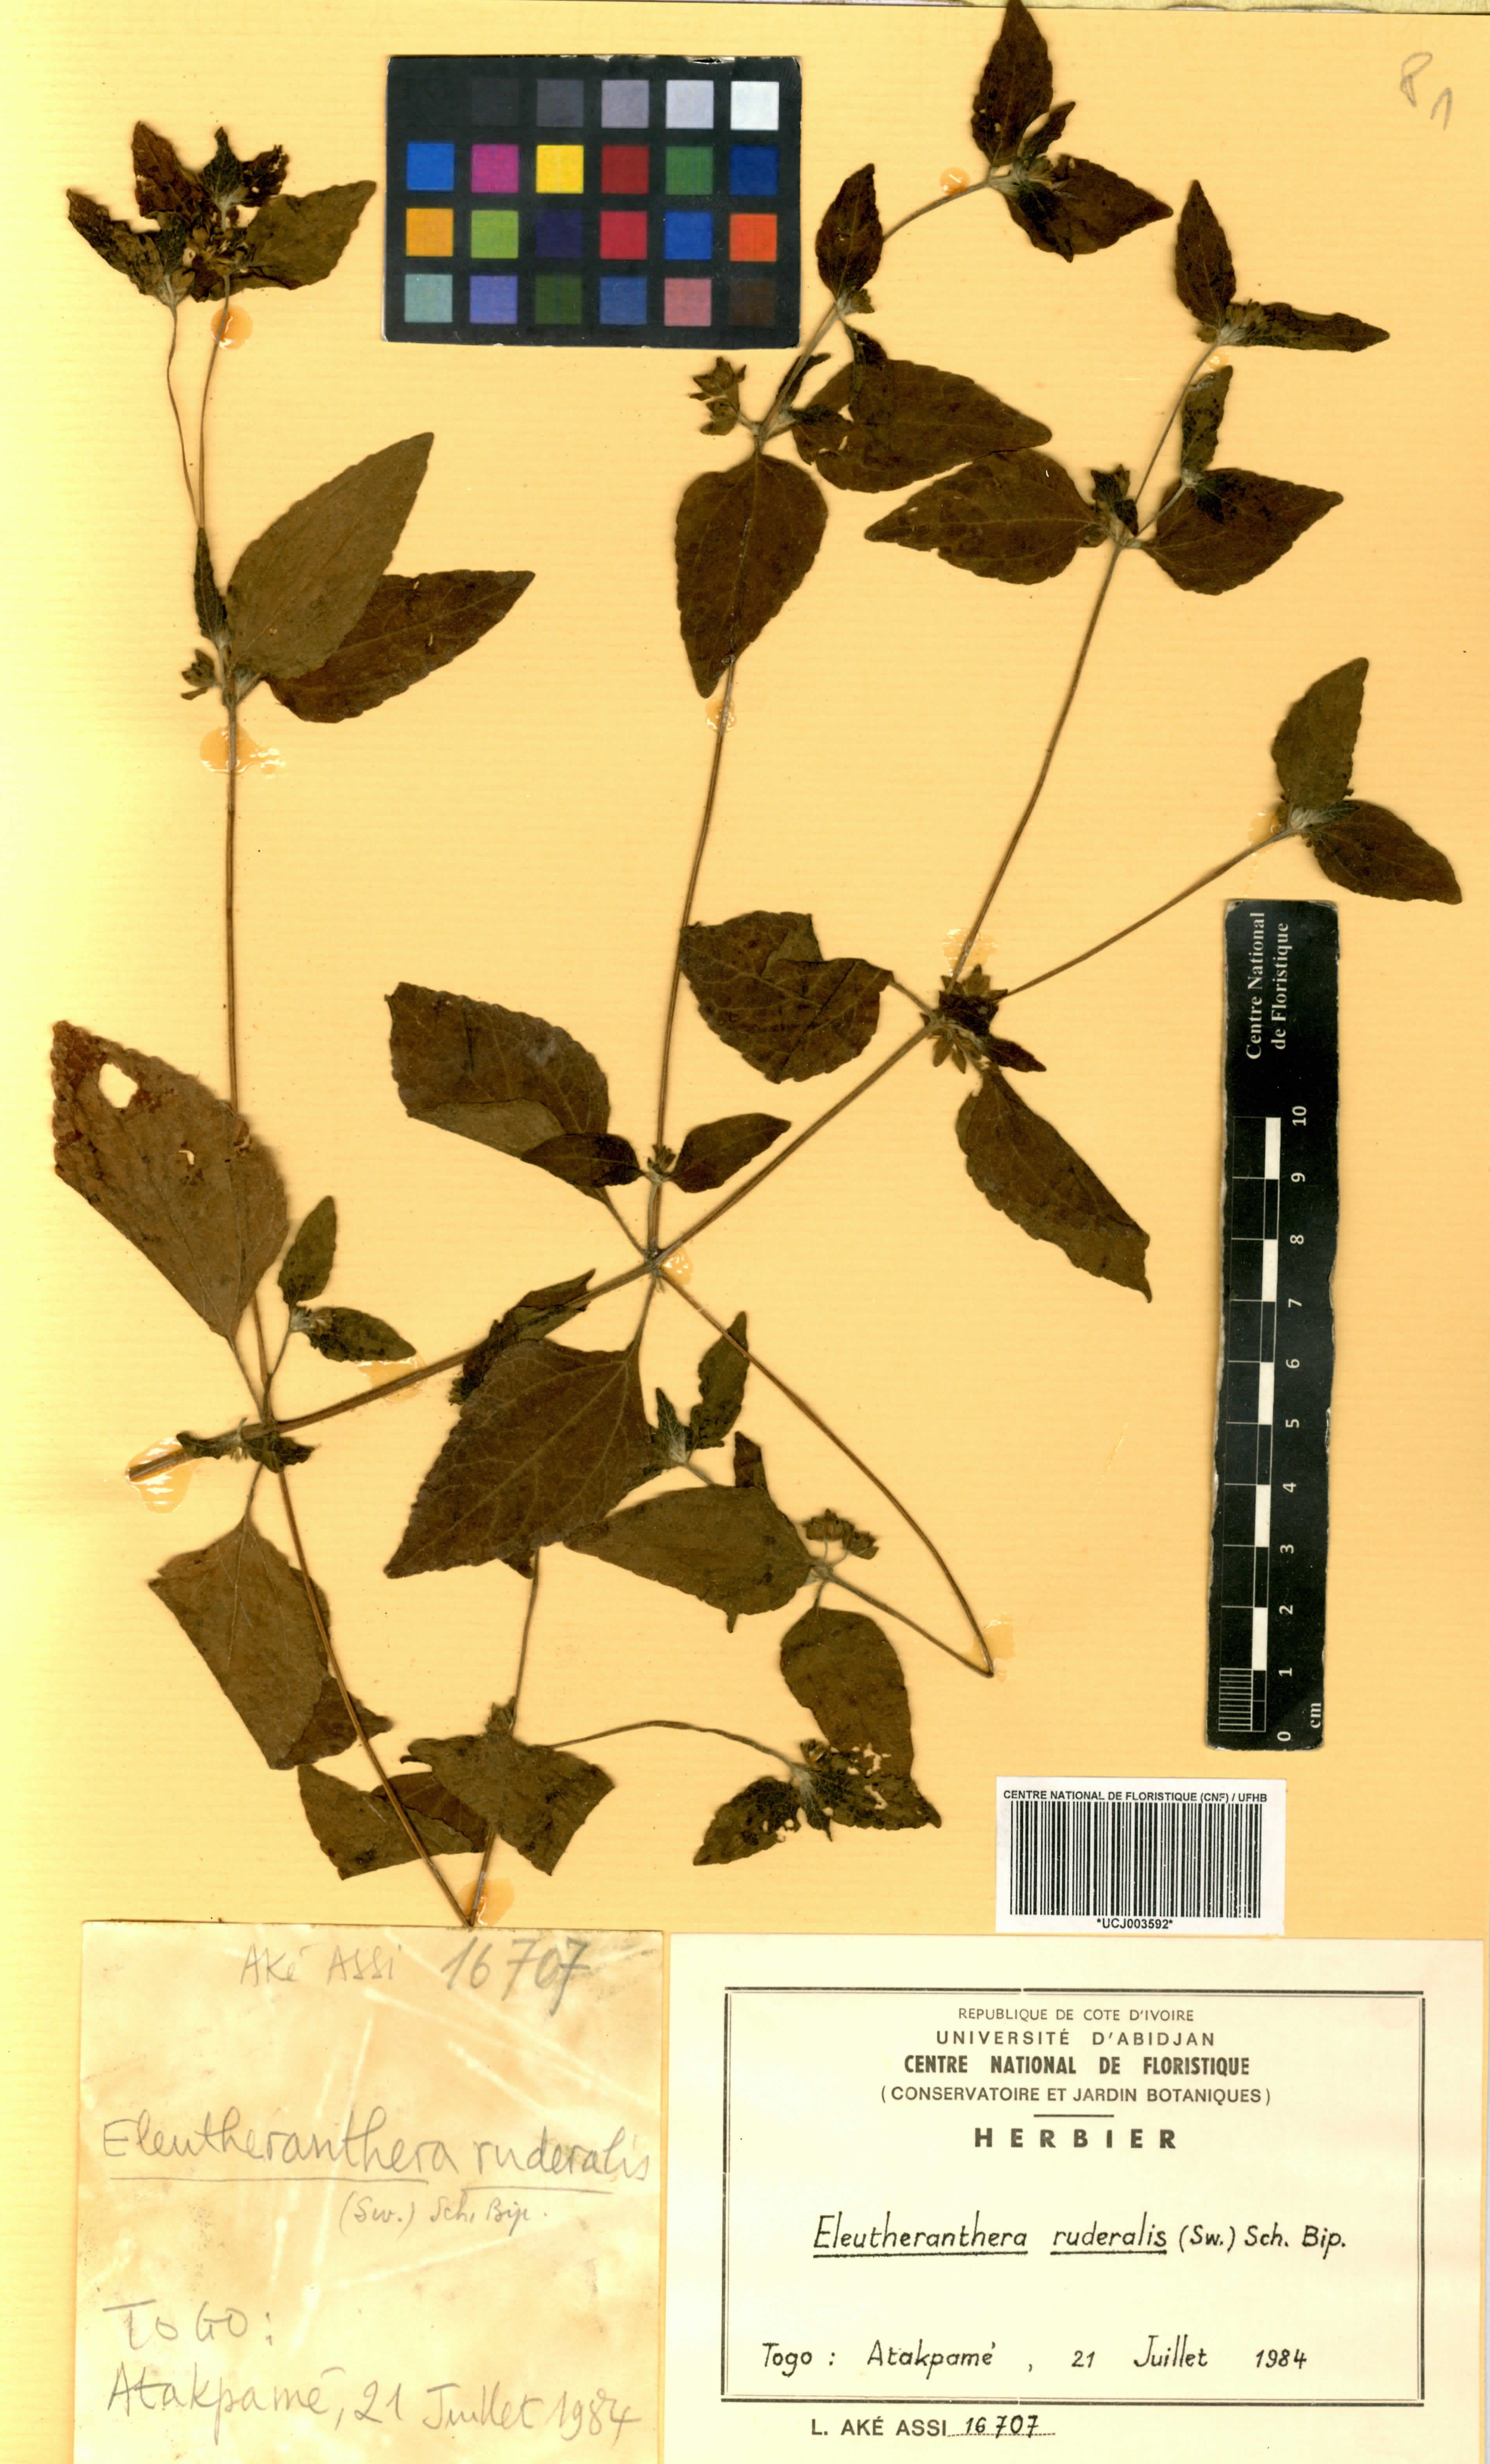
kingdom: Plantae
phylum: Tracheophyta
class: Magnoliopsida
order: Asterales
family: Asteraceae
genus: Eleutheranthera
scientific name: Eleutheranthera ruderalis
